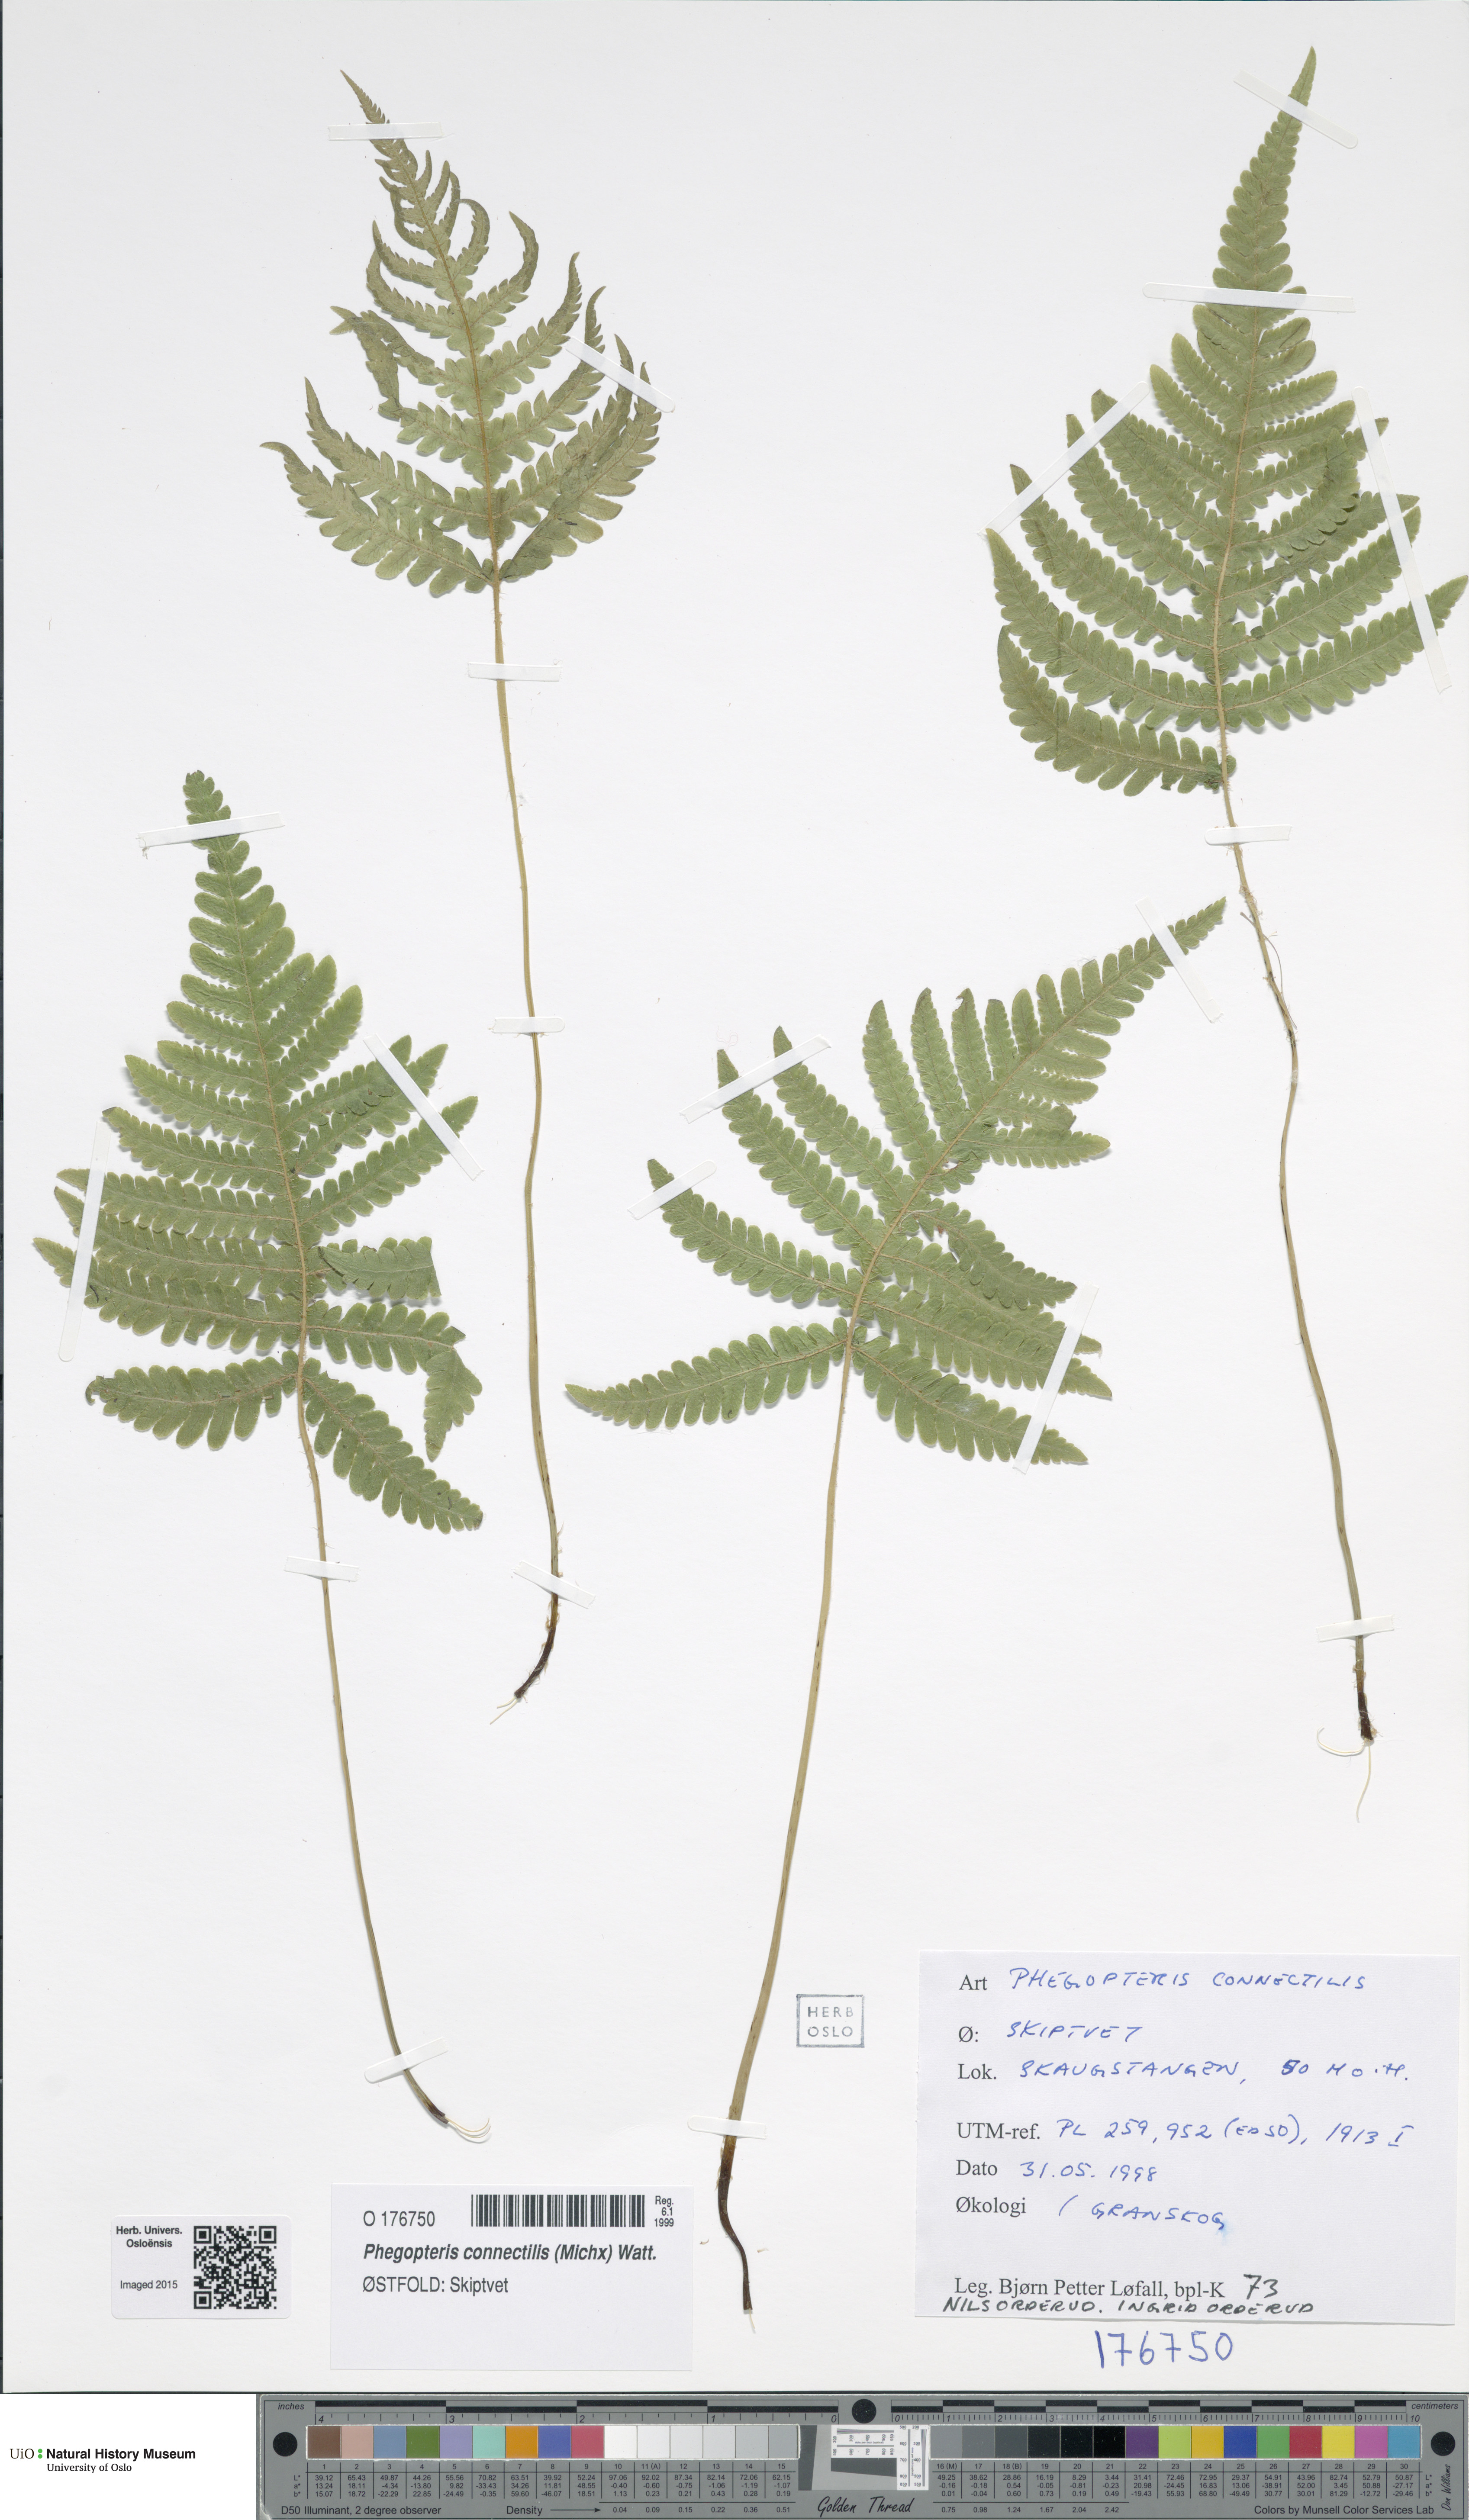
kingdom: Plantae
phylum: Tracheophyta
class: Polypodiopsida
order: Polypodiales
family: Thelypteridaceae
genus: Phegopteris
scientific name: Phegopteris connectilis
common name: Beech fern
